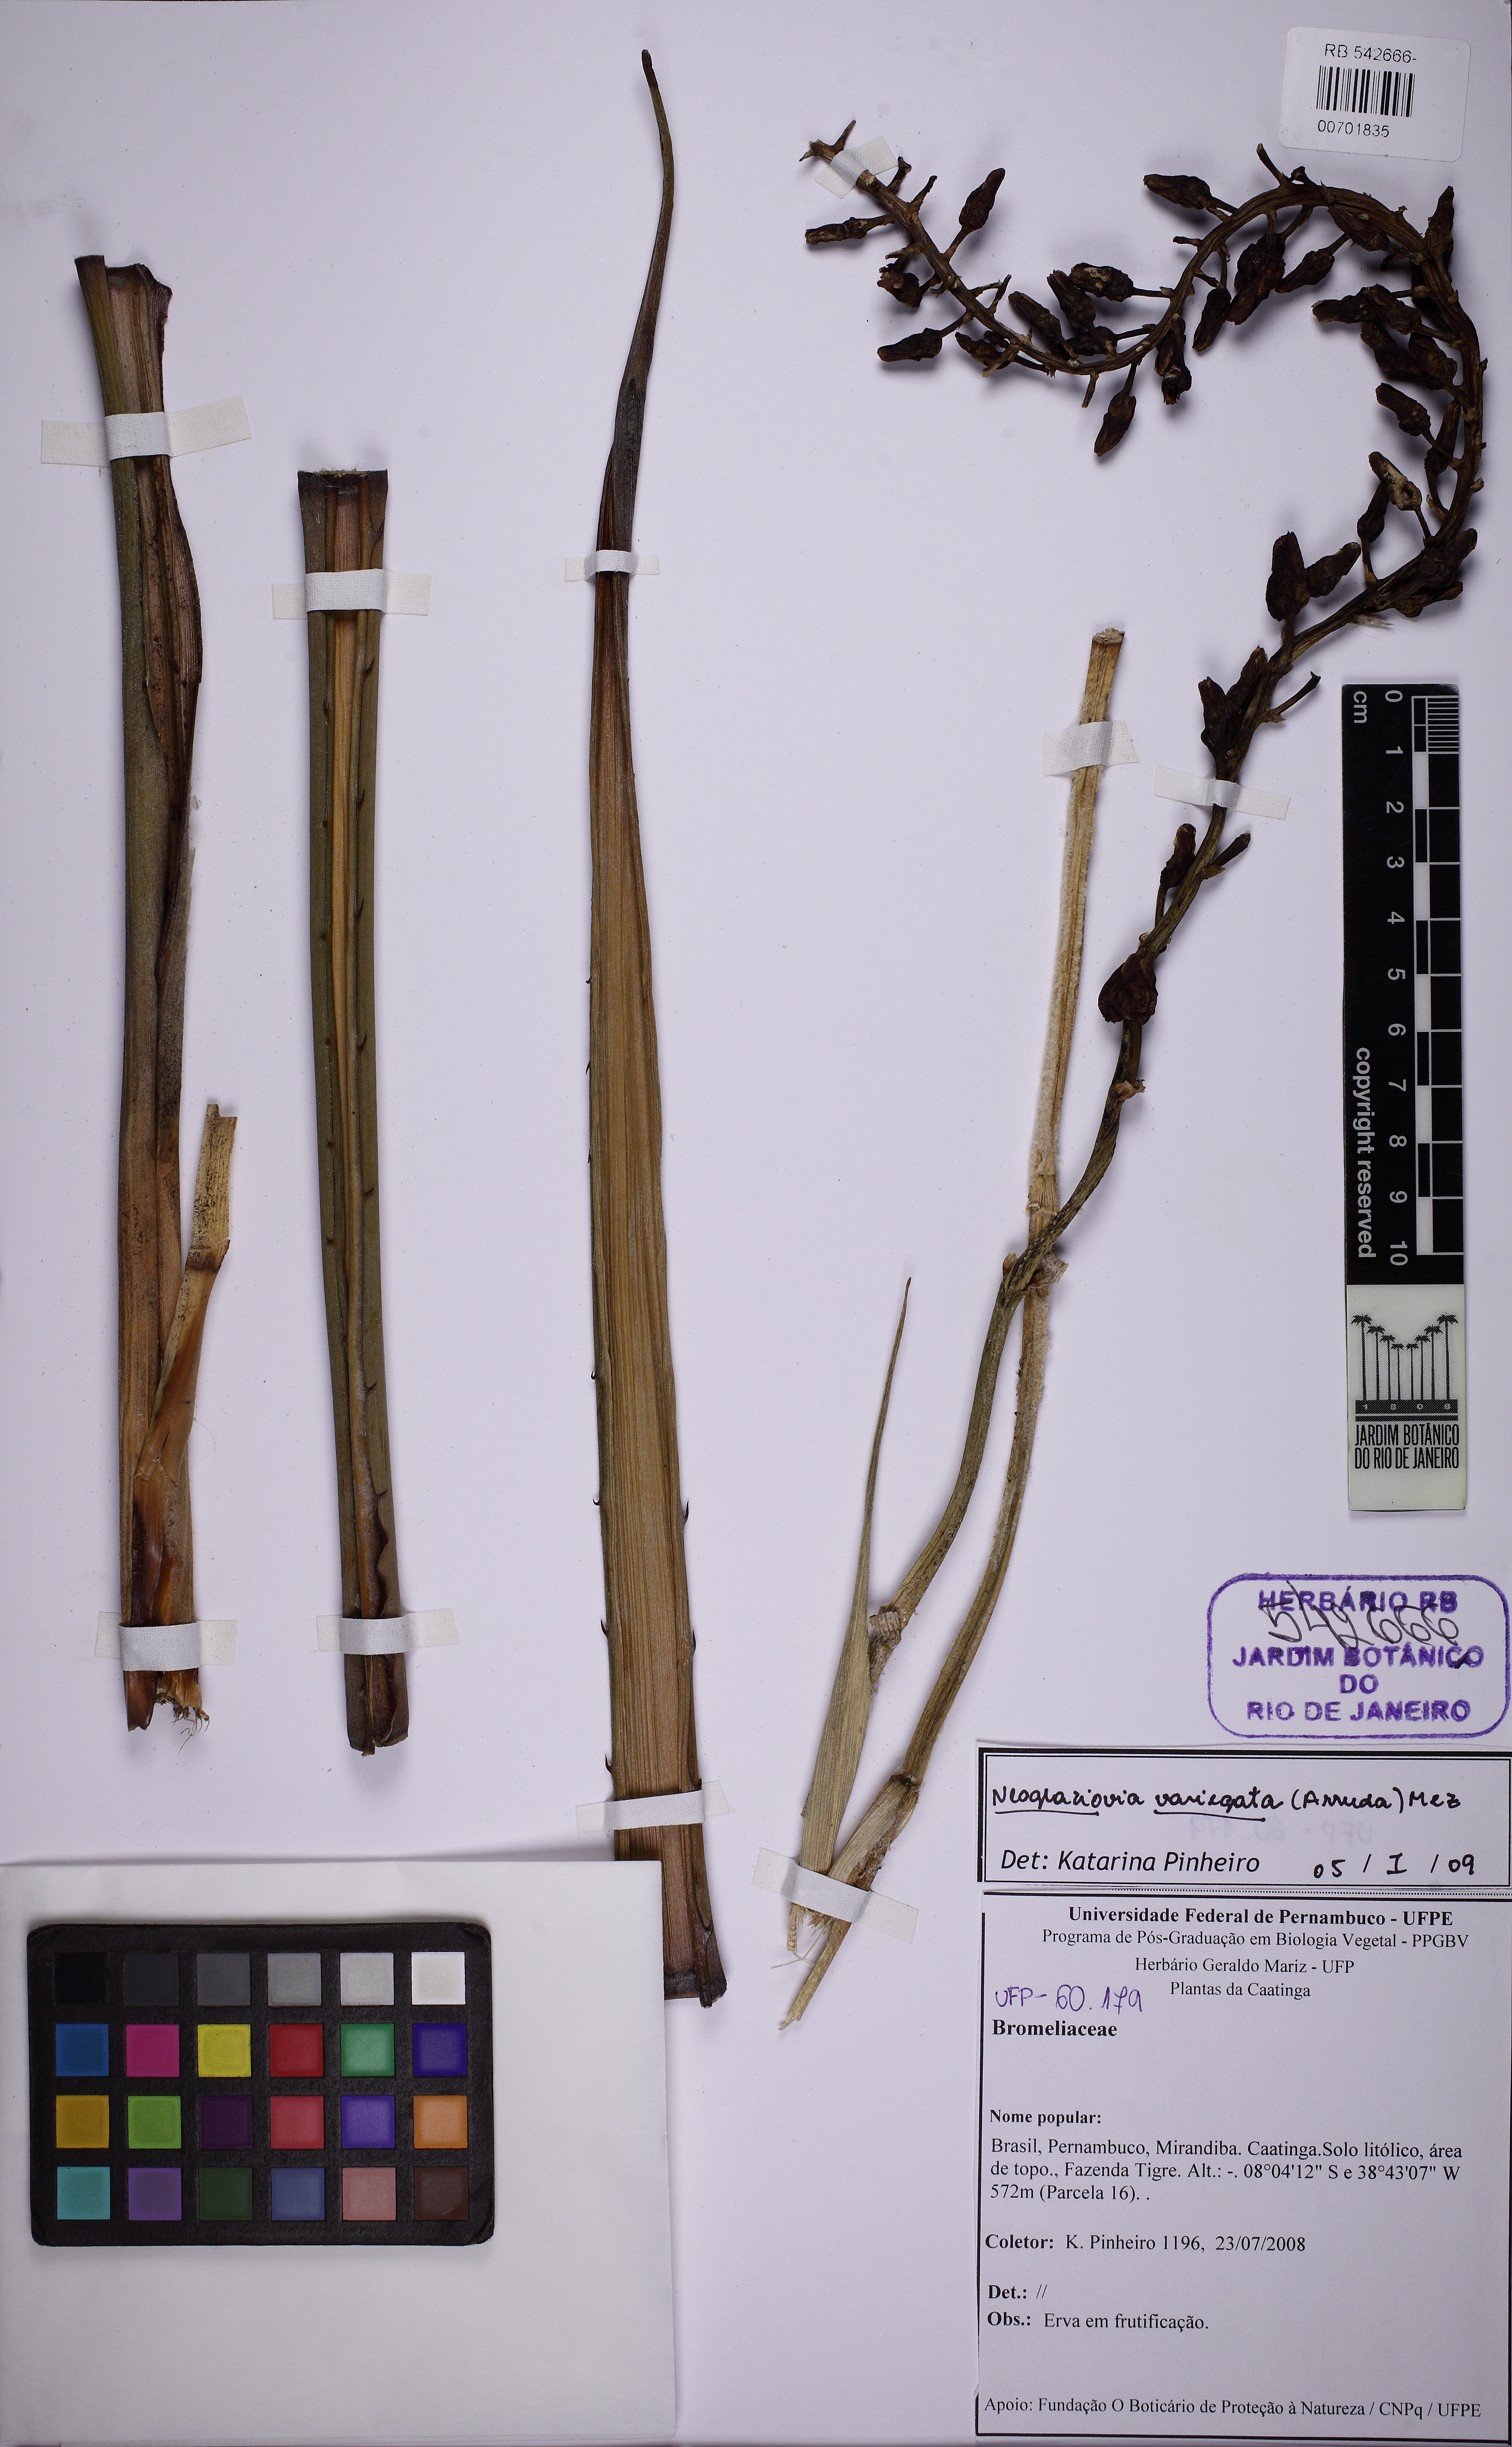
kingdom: Plantae
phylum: Tracheophyta
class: Liliopsida
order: Poales
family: Bromeliaceae
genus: Neoglaziovia
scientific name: Neoglaziovia variegata
